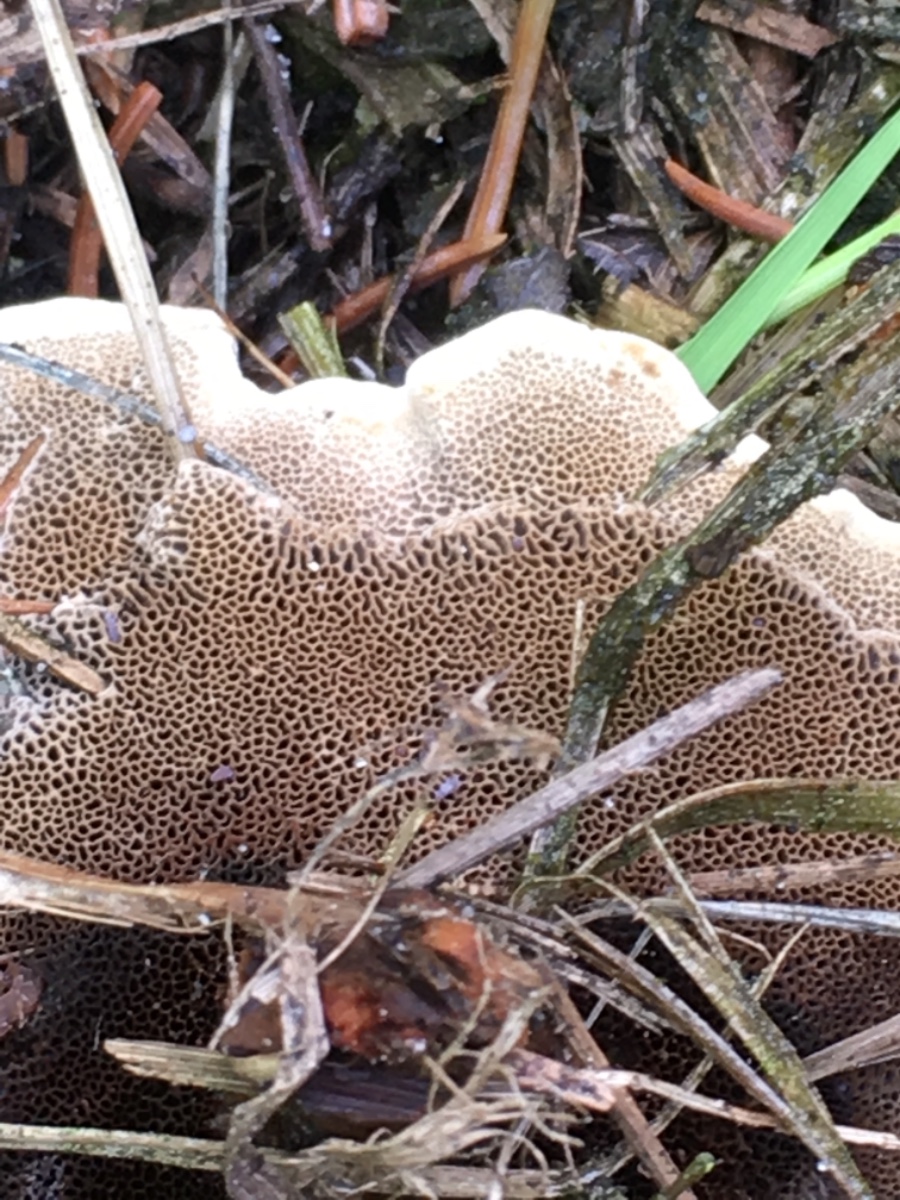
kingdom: Fungi
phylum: Basidiomycota
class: Agaricomycetes
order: Hymenochaetales
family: Hymenochaetaceae
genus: Coltricia
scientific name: Coltricia perennis
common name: almindelig sandporesvamp
